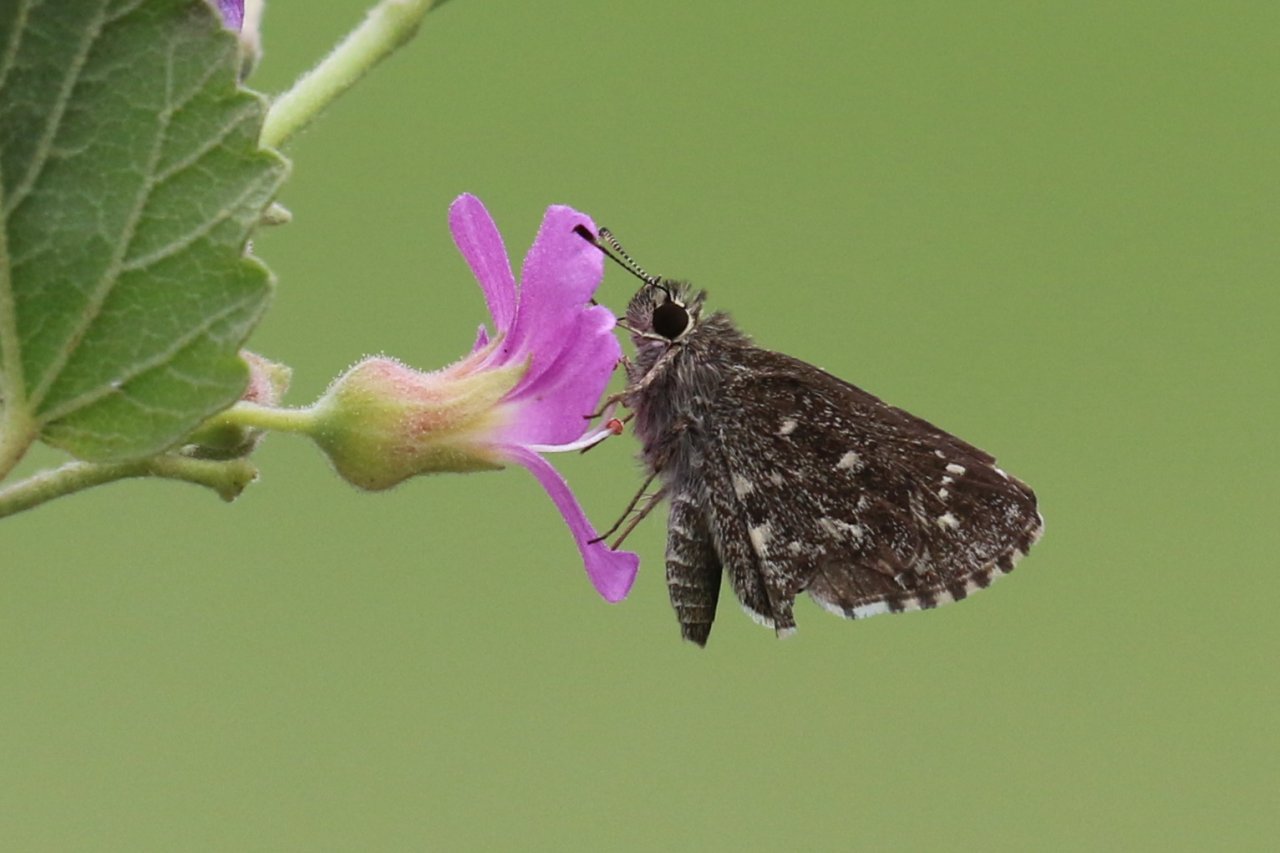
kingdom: Animalia
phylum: Arthropoda
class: Insecta
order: Lepidoptera
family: Hesperiidae
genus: Mastor
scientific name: Mastor celia
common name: Celia's Roadside-Skipper
